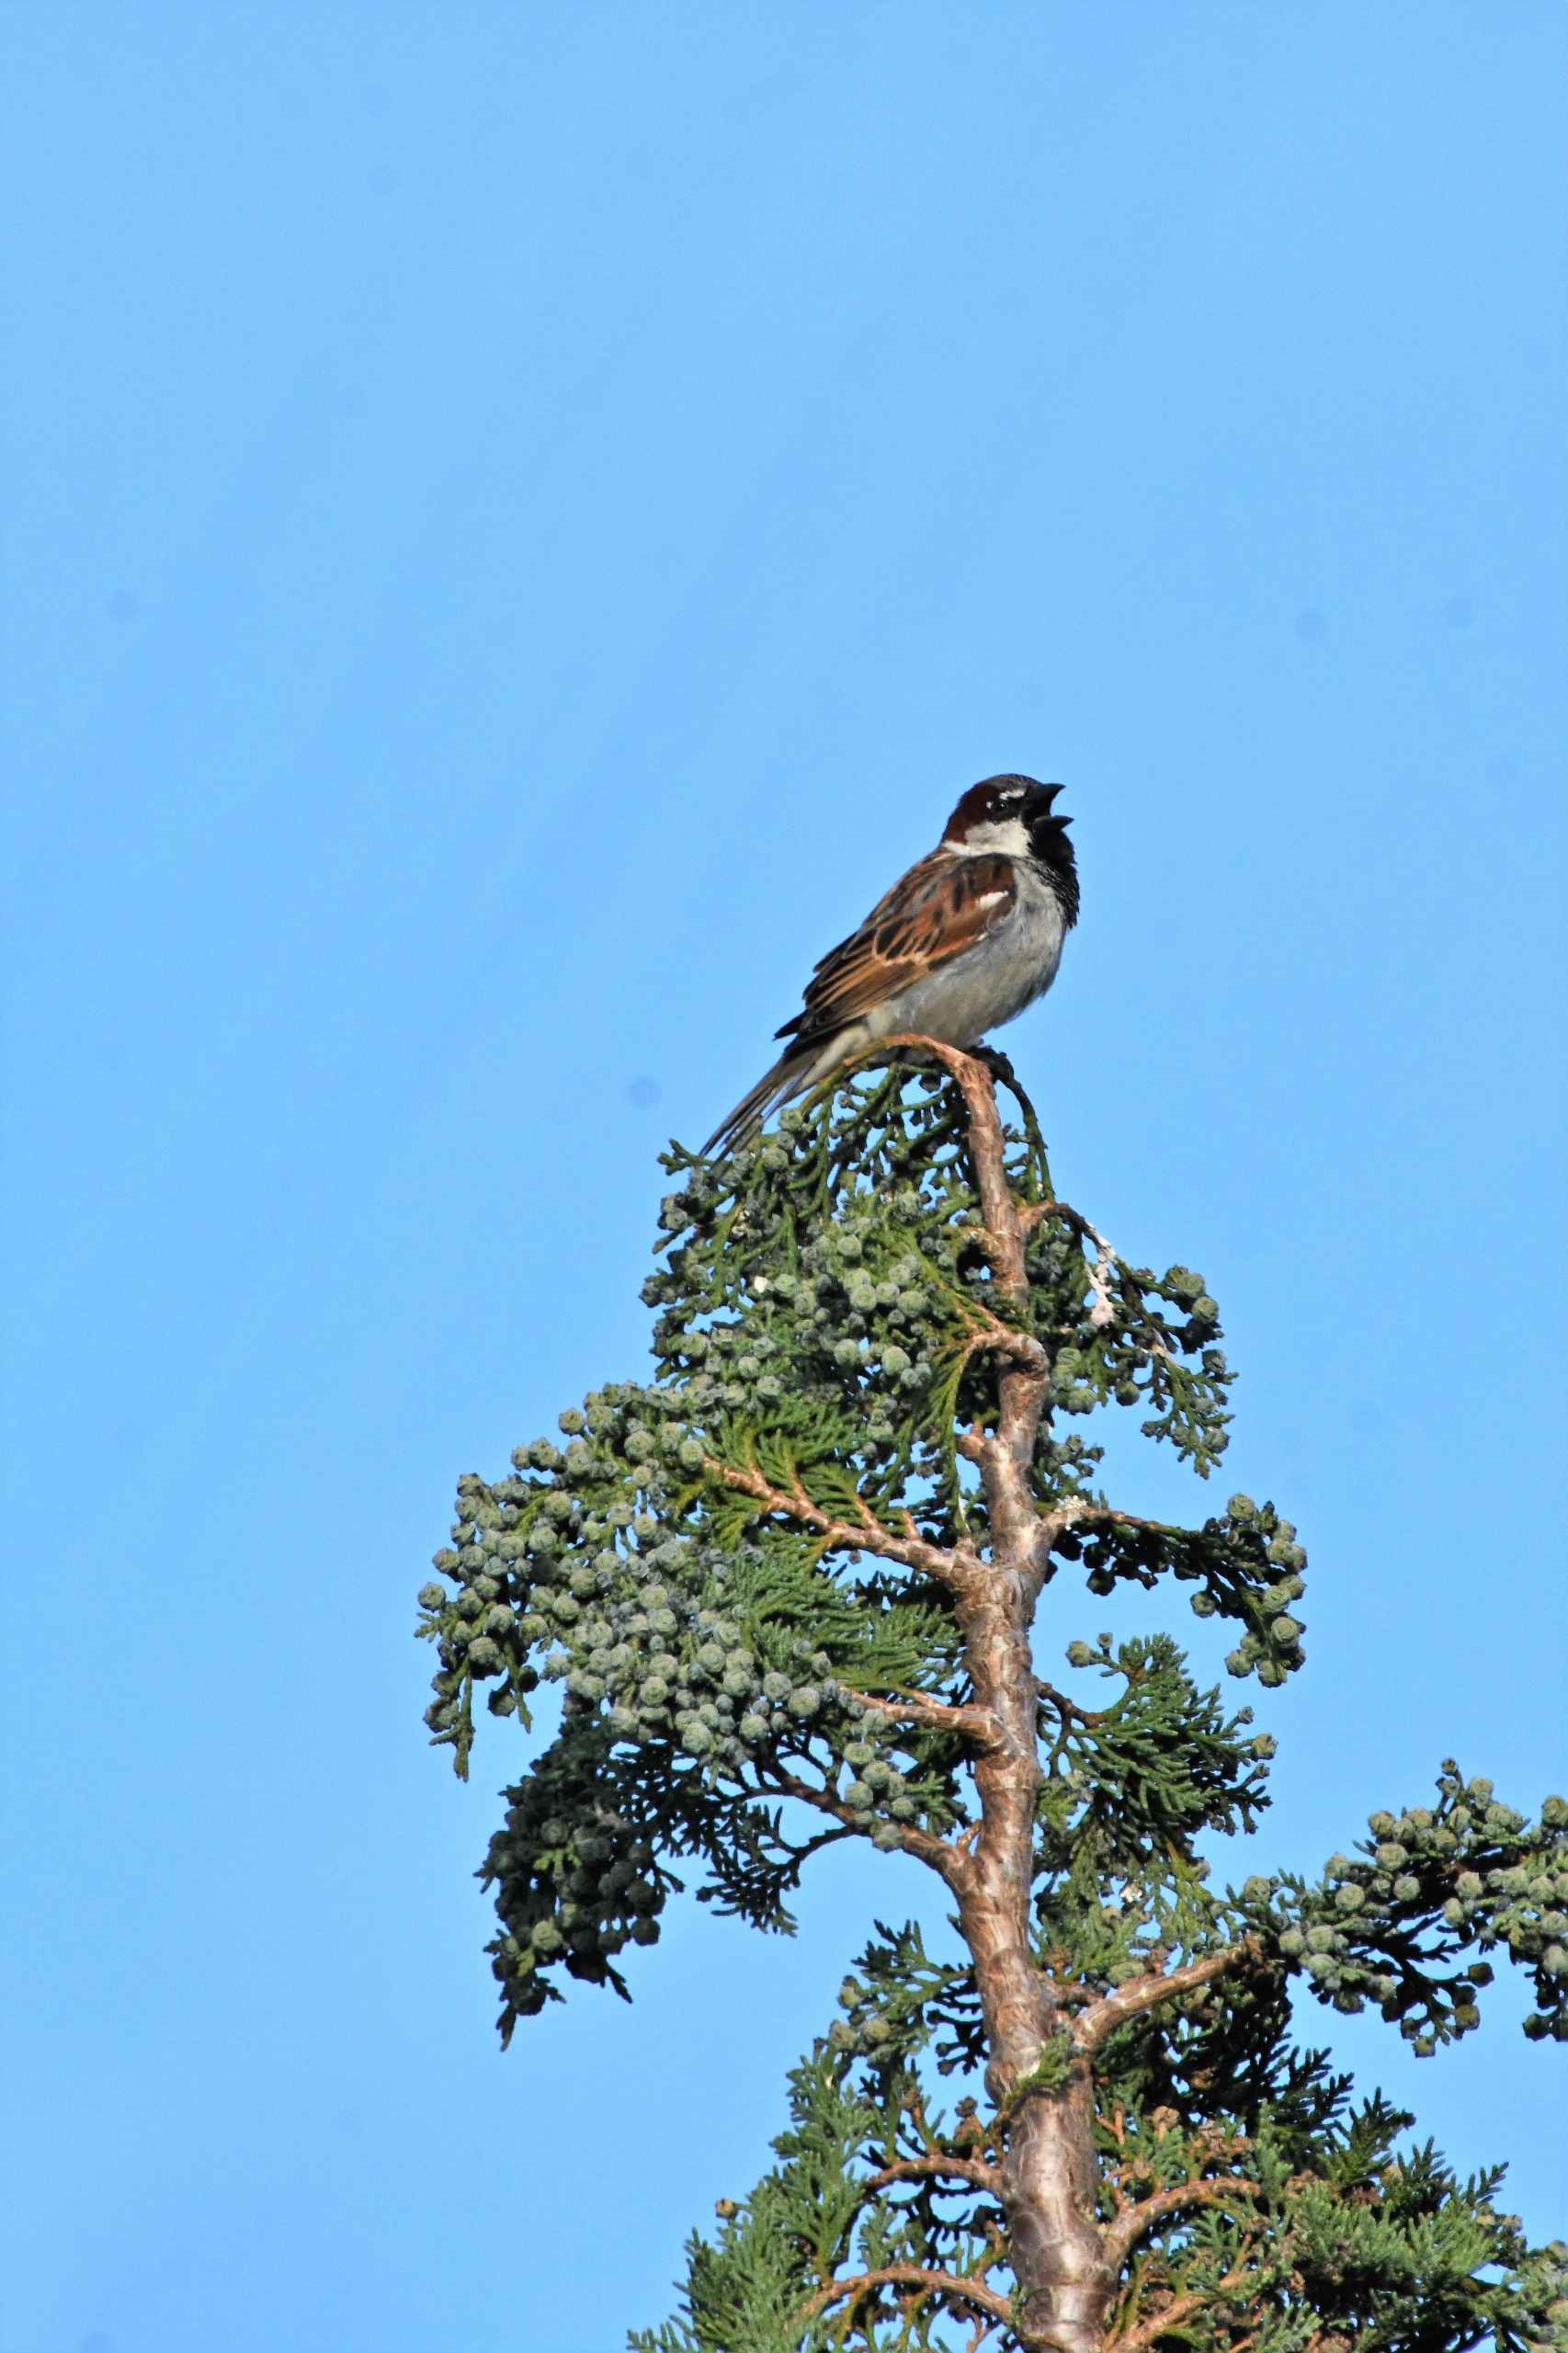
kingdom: Animalia
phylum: Chordata
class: Aves
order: Passeriformes
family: Passeridae
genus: Passer
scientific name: Passer domesticus
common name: Gråspurv
